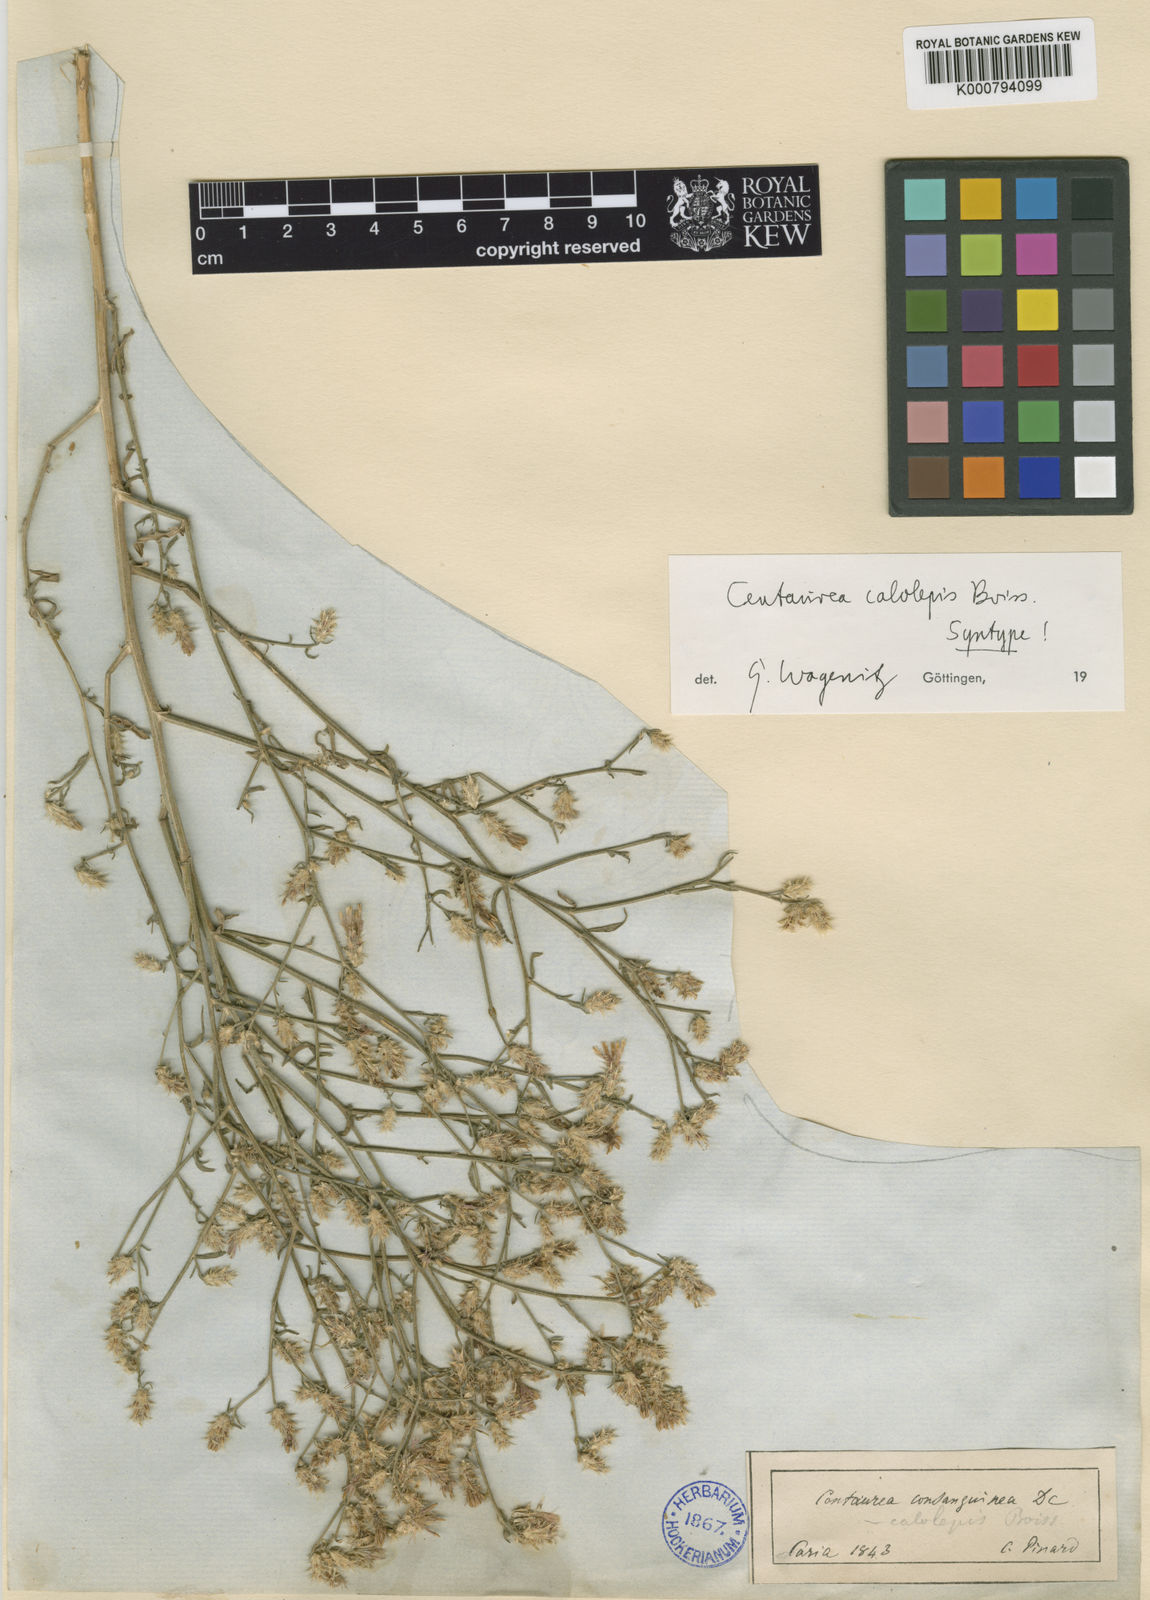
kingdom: Plantae
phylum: Tracheophyta
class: Magnoliopsida
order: Asterales
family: Asteraceae
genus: Centaurea
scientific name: Centaurea calolepis
